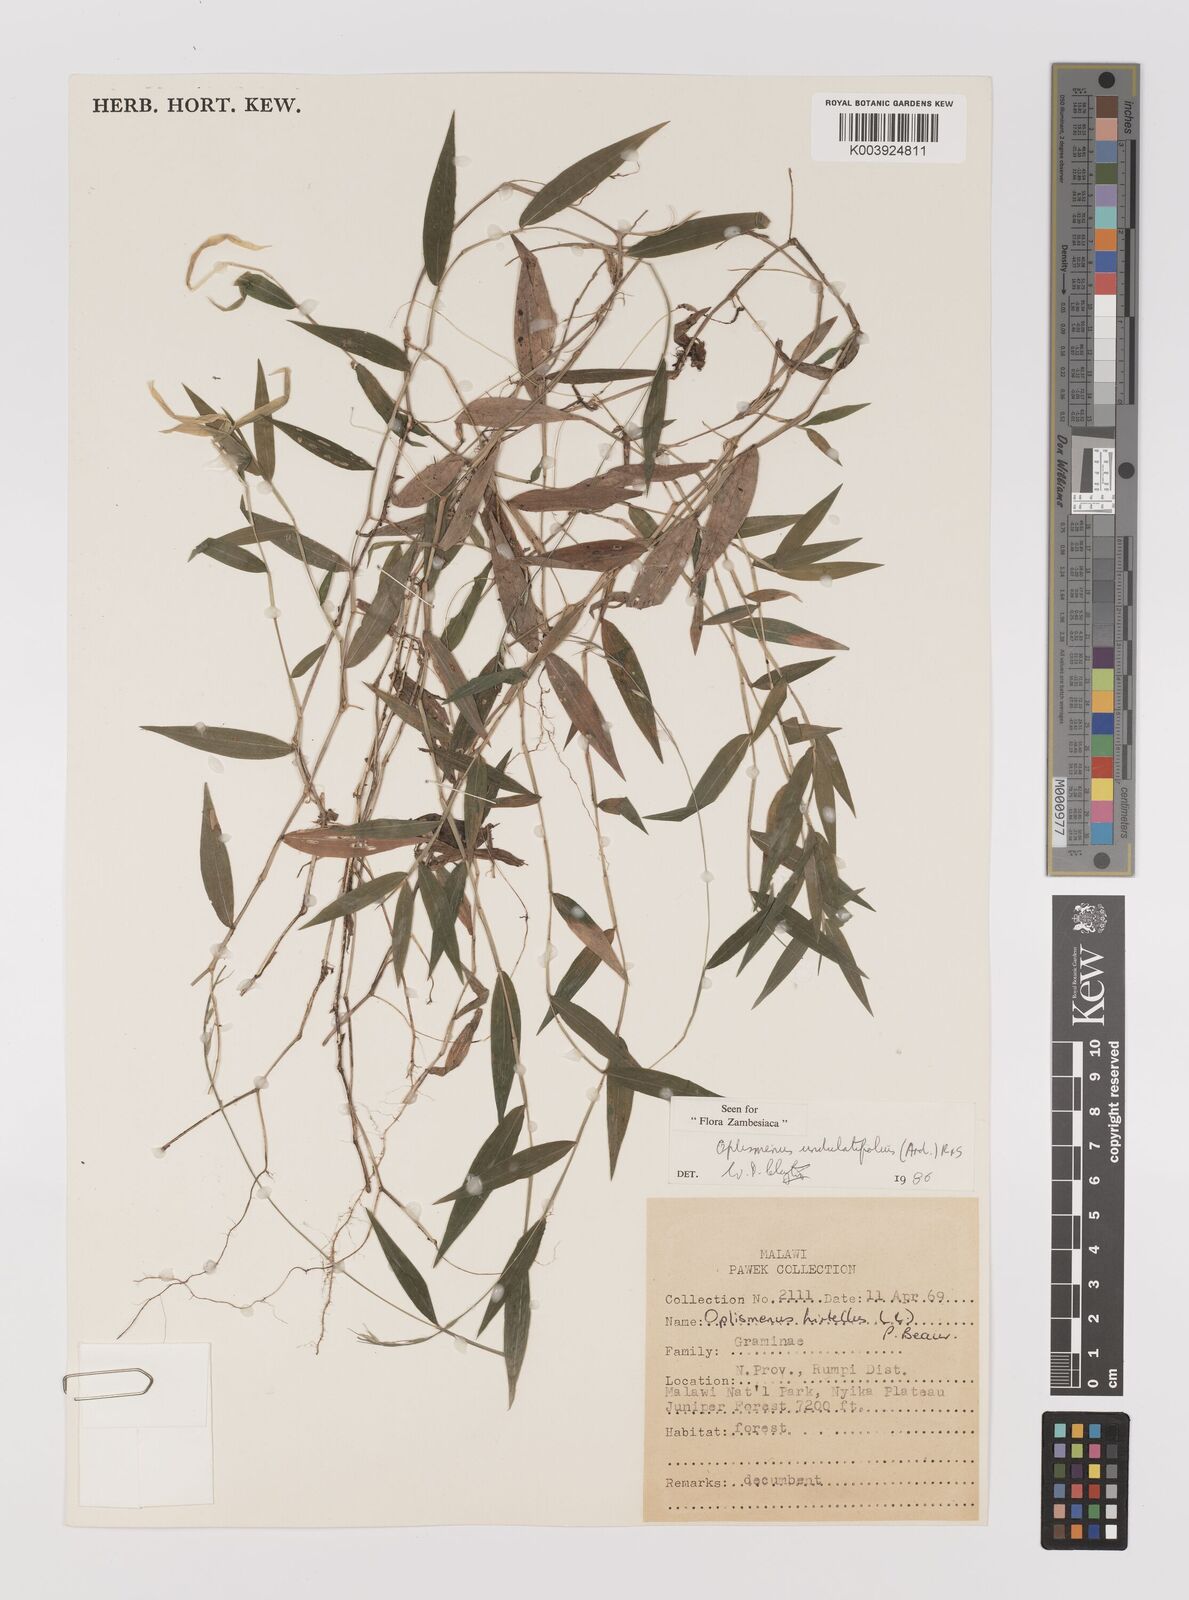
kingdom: Plantae
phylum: Tracheophyta
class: Liliopsida
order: Poales
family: Poaceae
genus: Oplismenus
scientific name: Oplismenus undulatifolius
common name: Wavyleaf basketgrass
